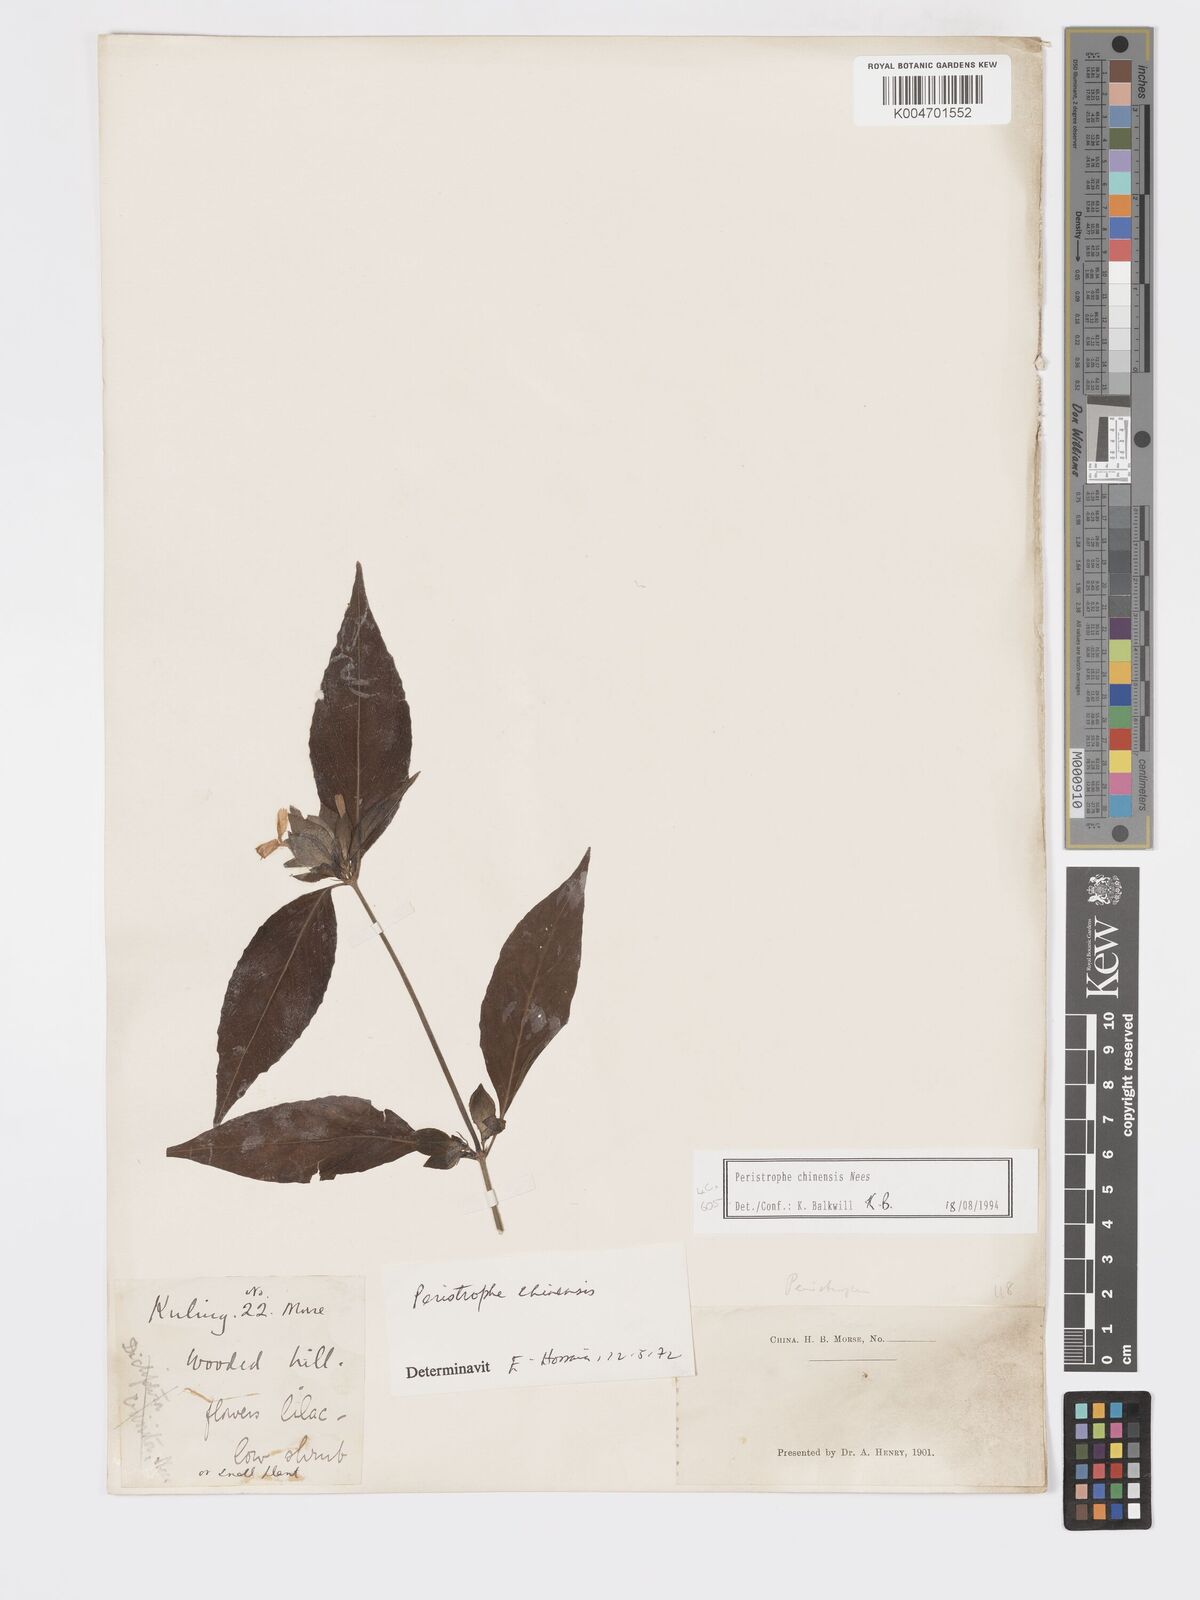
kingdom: Plantae
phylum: Tracheophyta
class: Magnoliopsida
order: Lamiales
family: Acanthaceae
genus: Dicliptera
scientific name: Dicliptera chinensis
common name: Chinese foldwing
